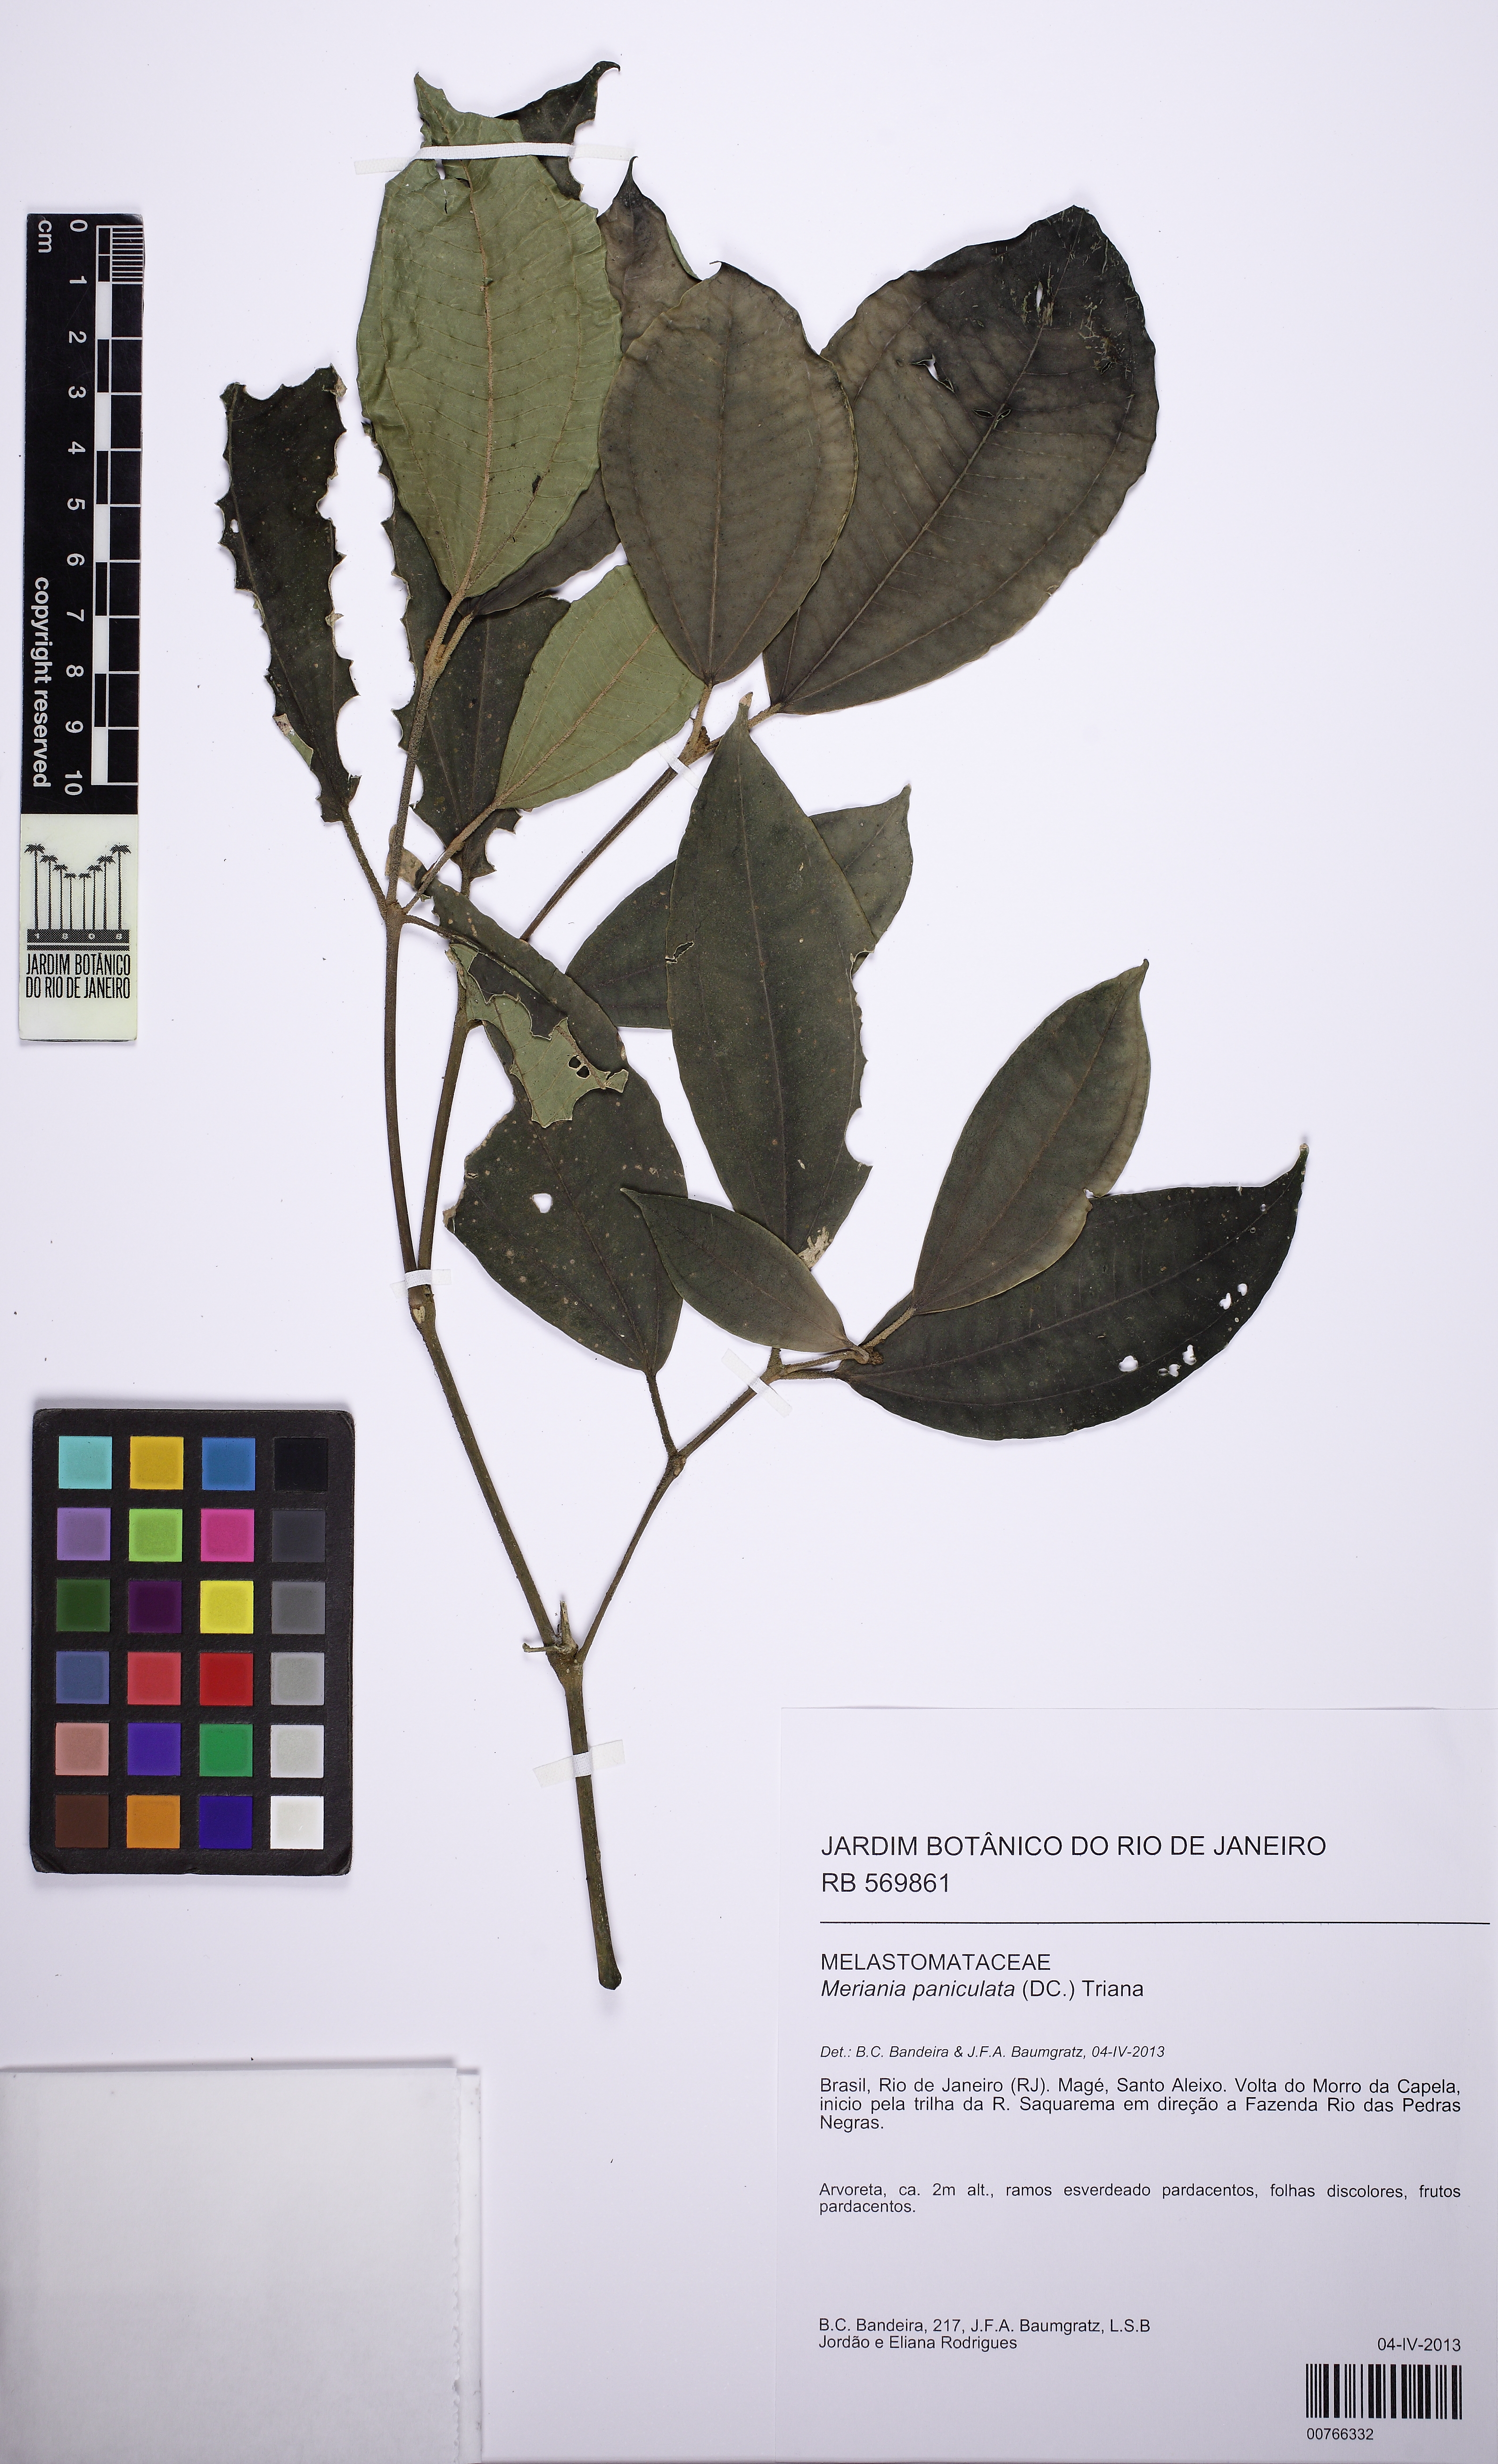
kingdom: Plantae
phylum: Tracheophyta
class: Magnoliopsida
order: Myrtales
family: Melastomataceae
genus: Meriania
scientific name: Meriania paniculata
